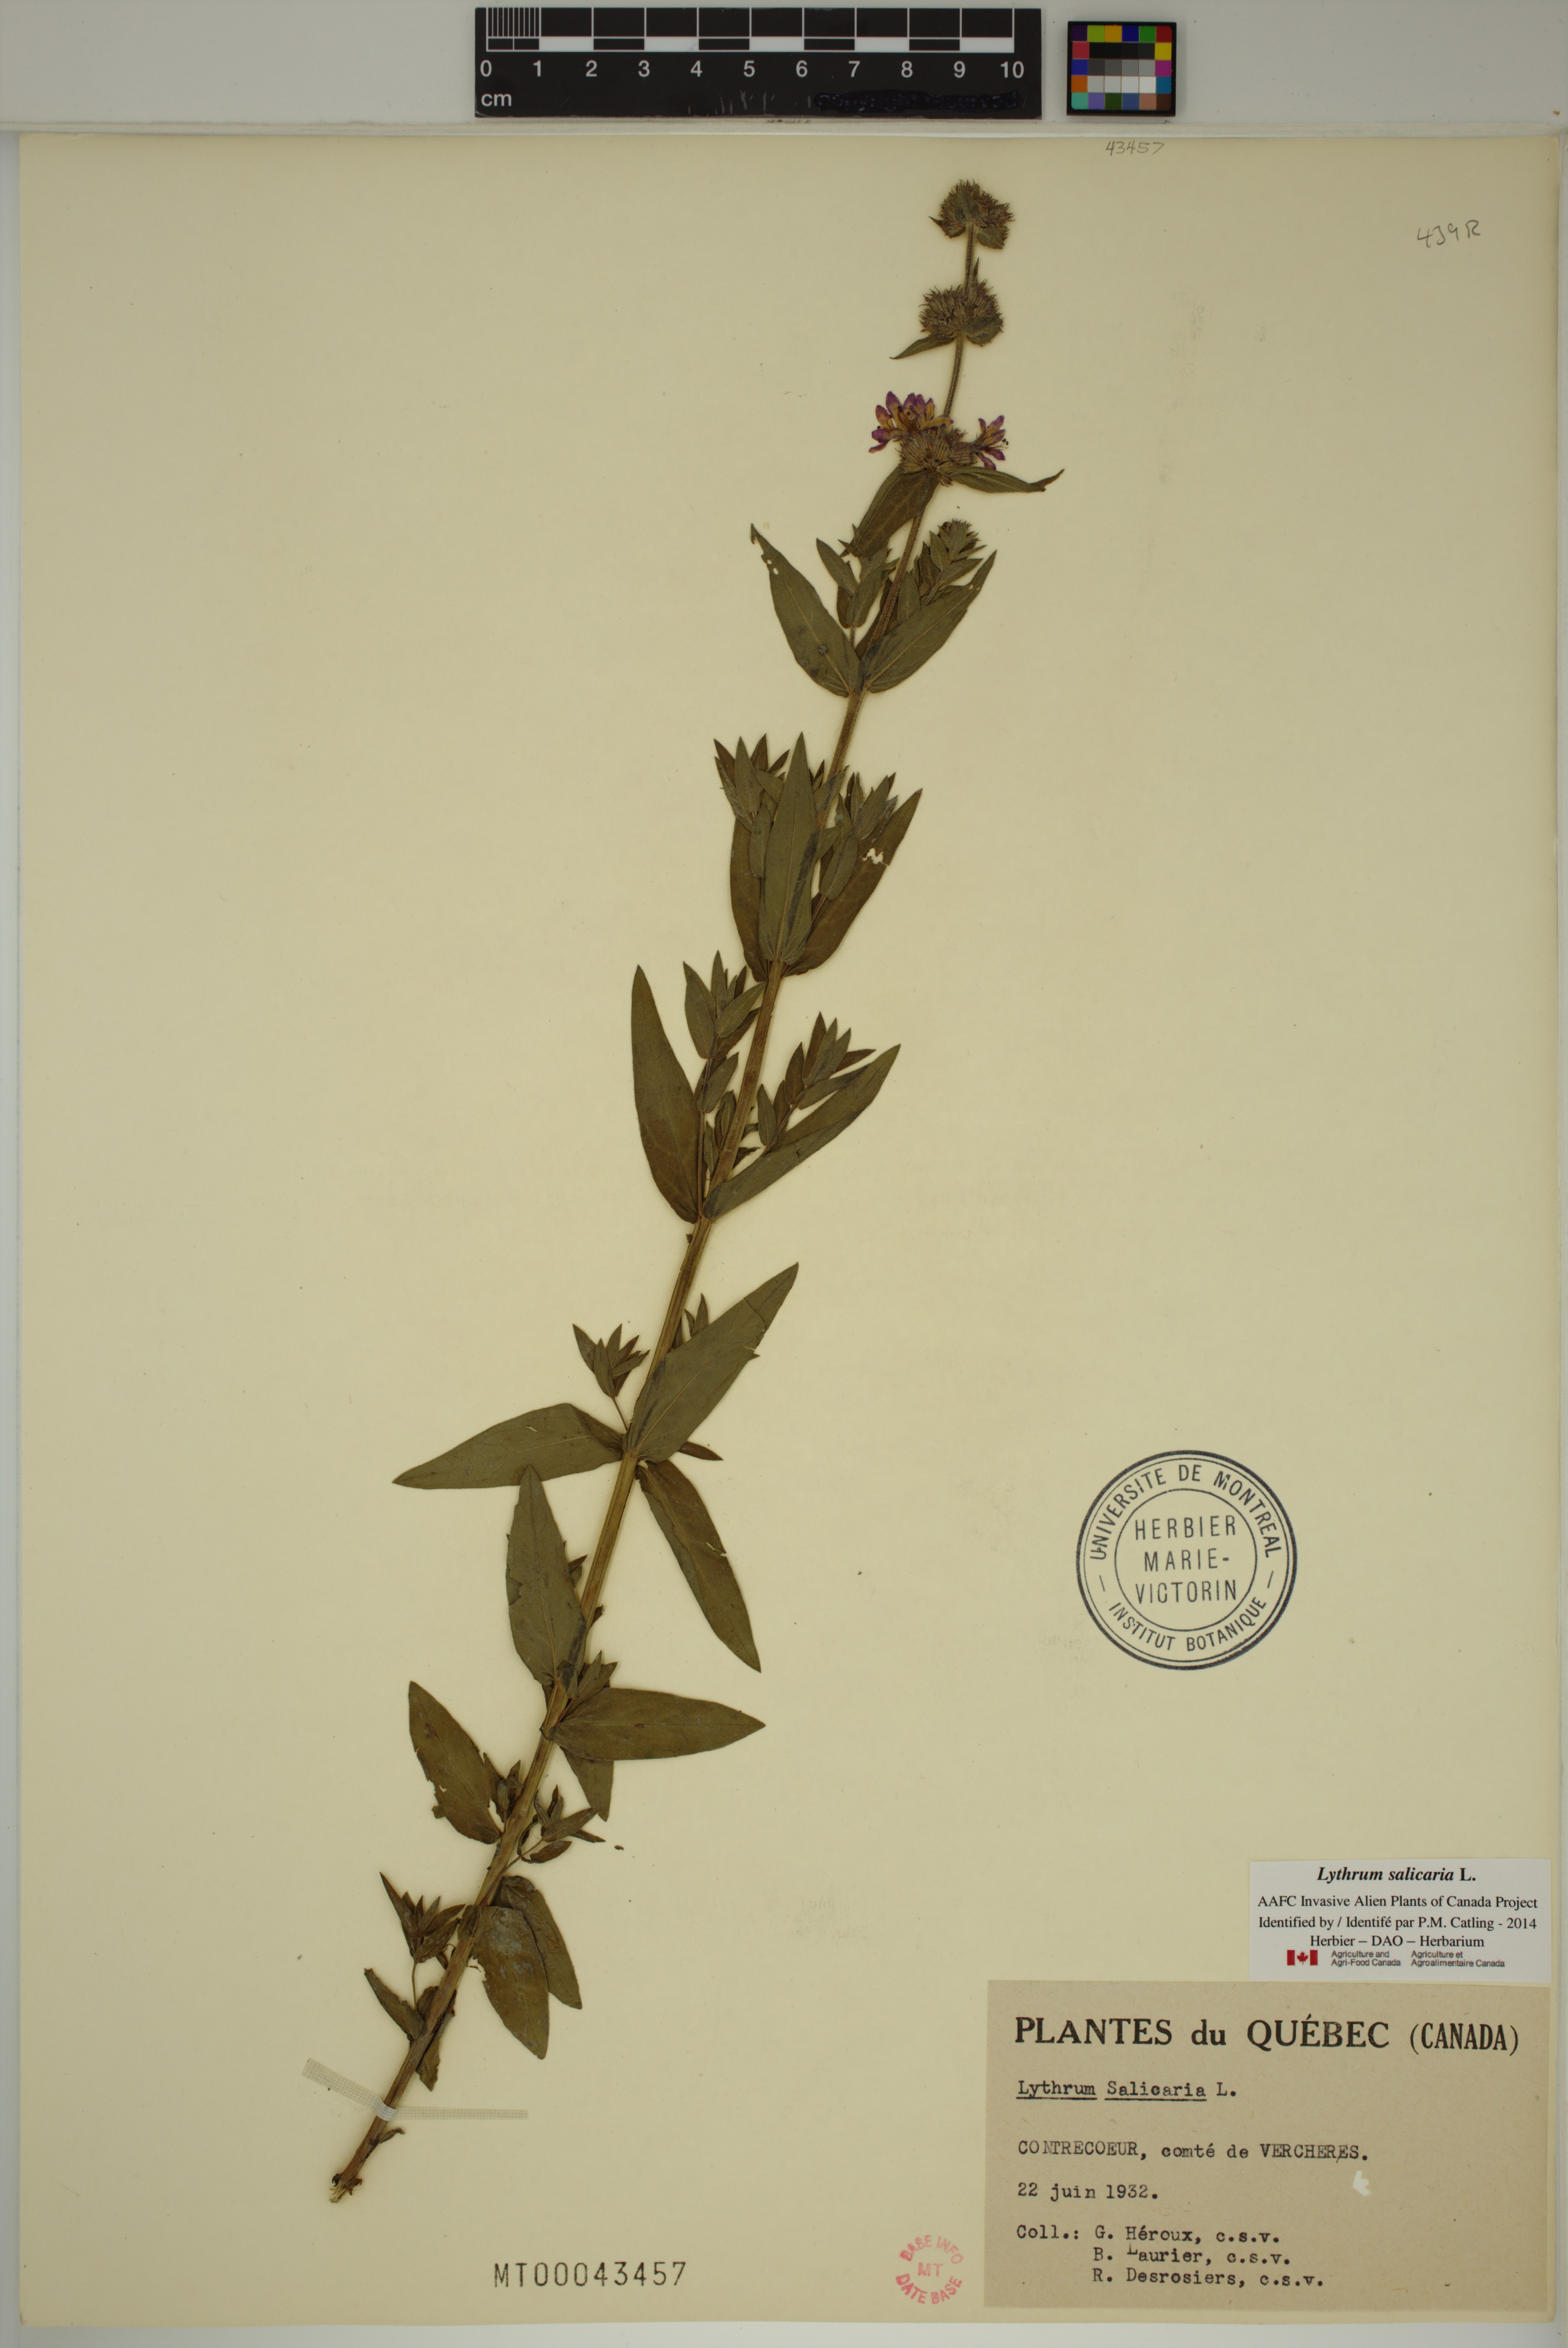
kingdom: Plantae
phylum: Tracheophyta
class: Magnoliopsida
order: Myrtales
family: Lythraceae
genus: Lythrum
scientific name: Lythrum salicaria
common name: Purple loosestrife
